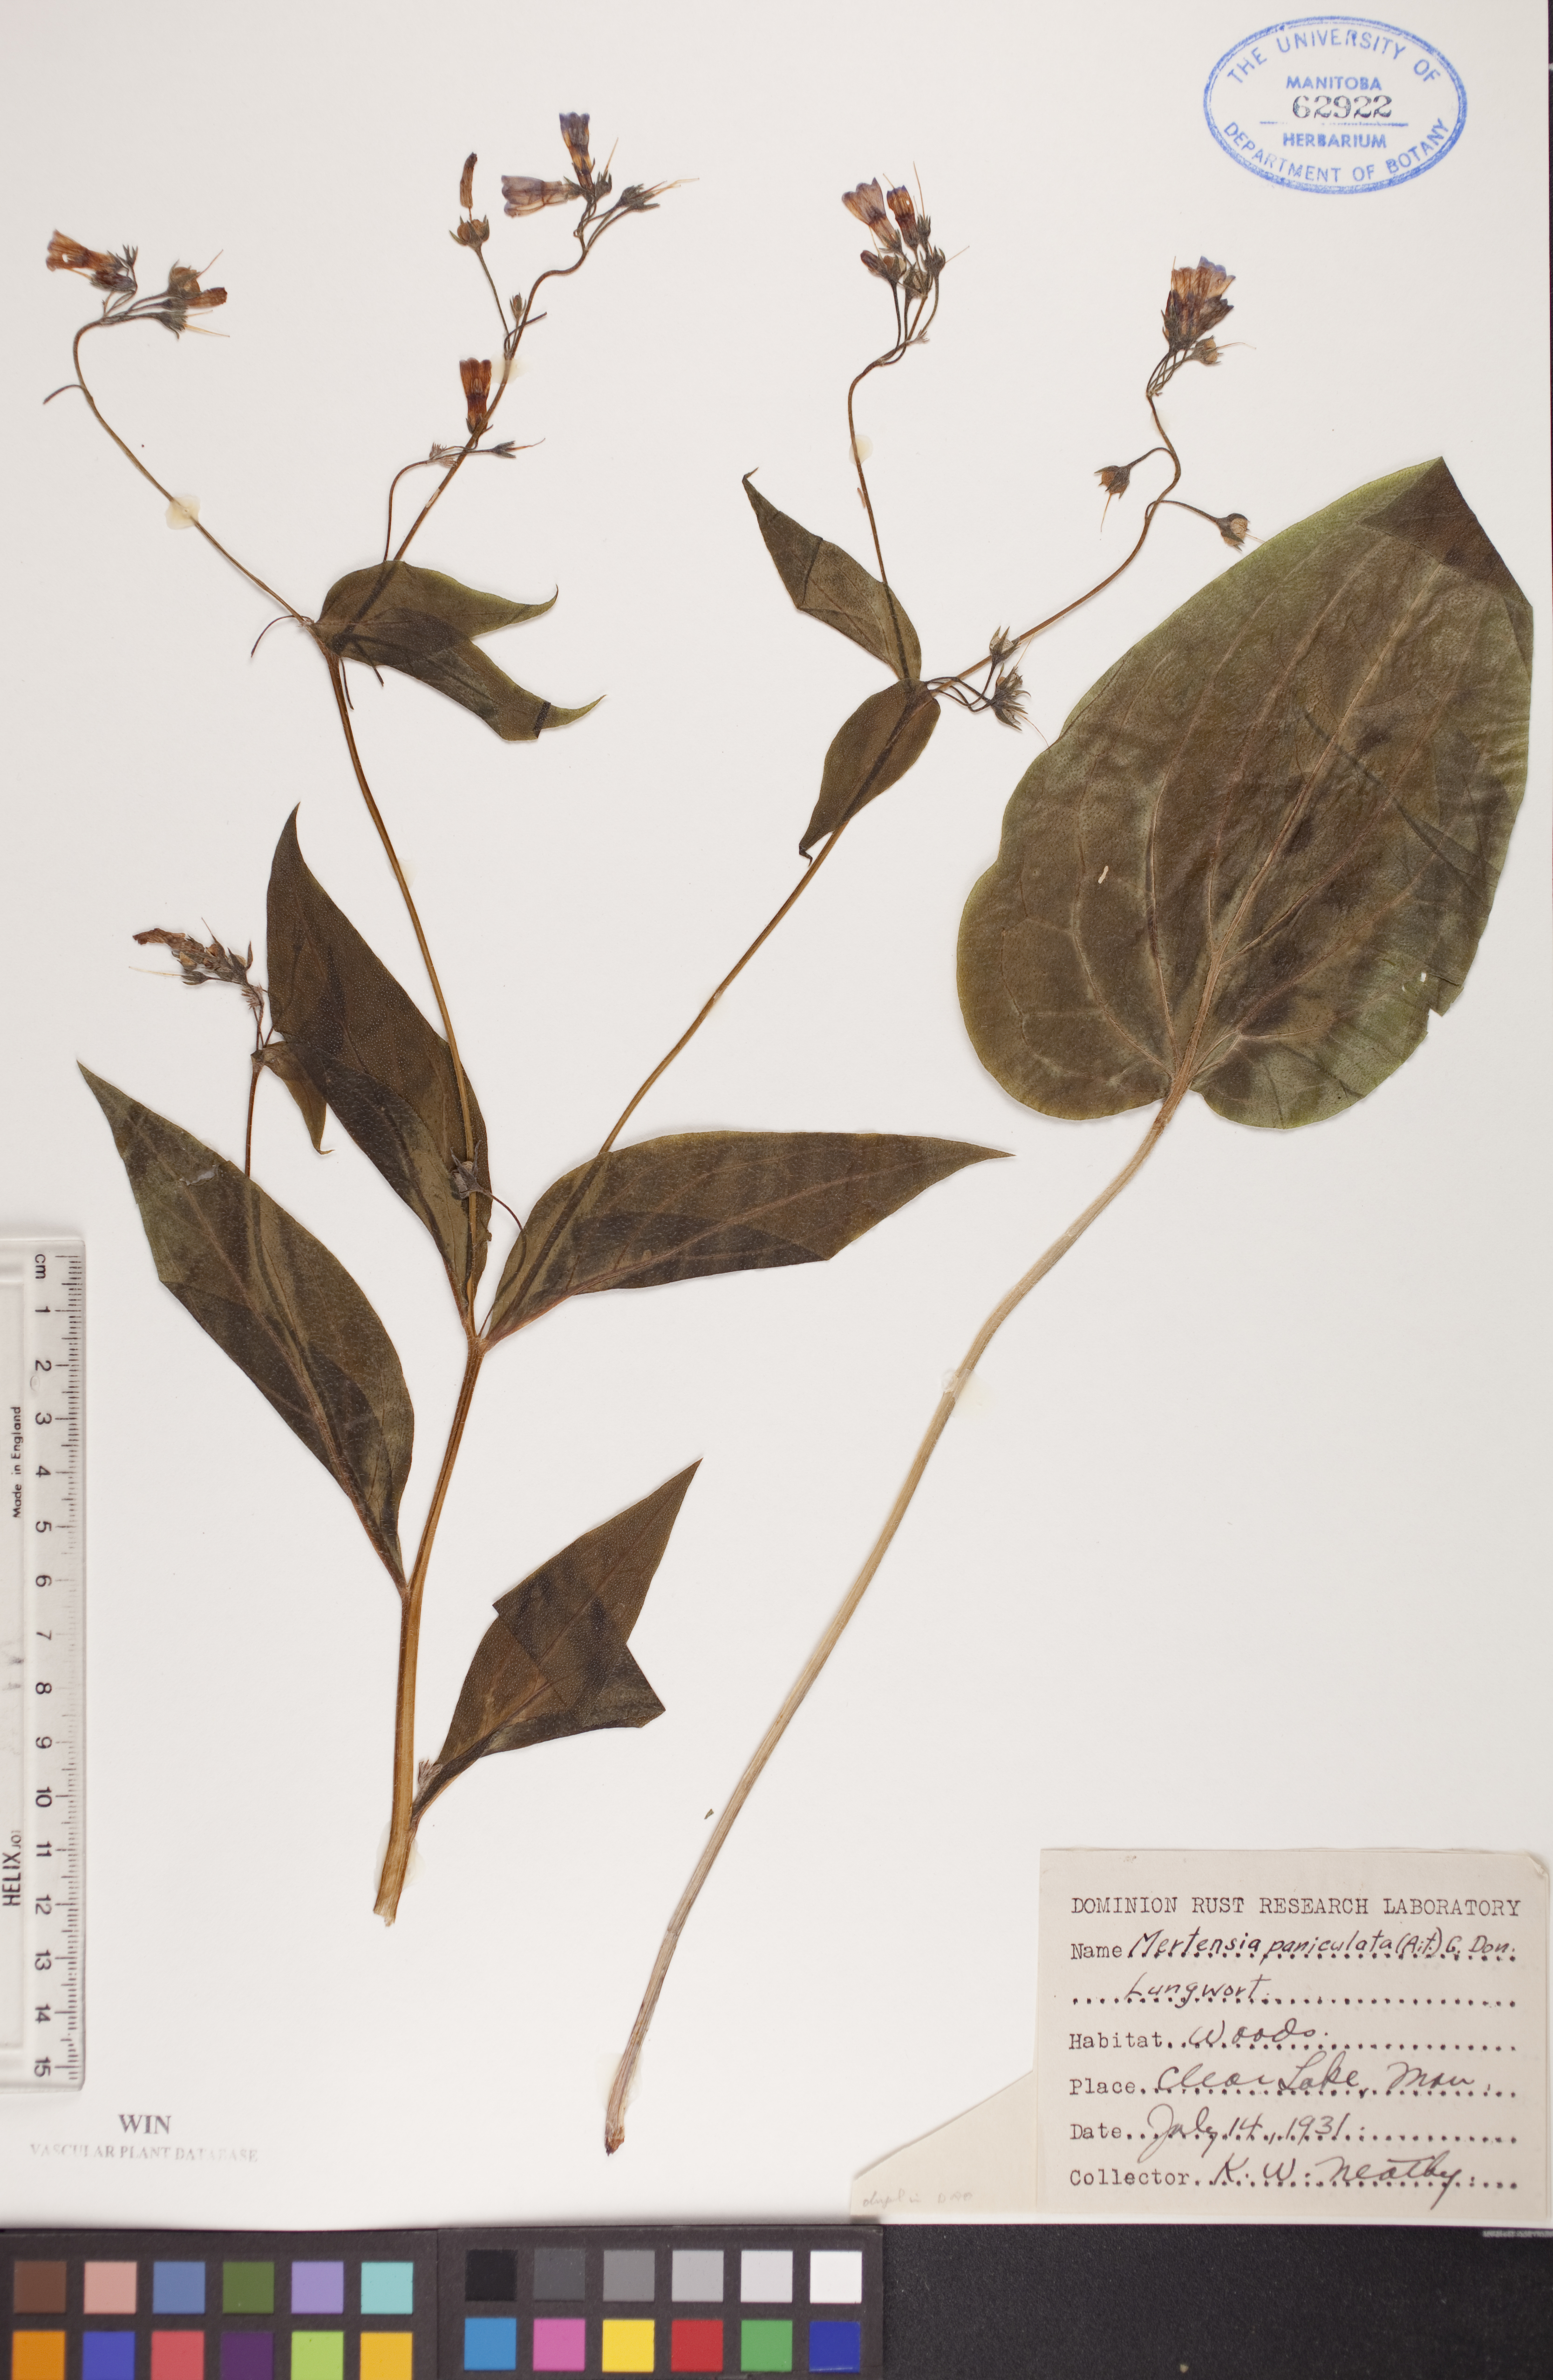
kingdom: Plantae
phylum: Tracheophyta
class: Magnoliopsida
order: Boraginales
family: Boraginaceae
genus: Mertensia
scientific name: Mertensia paniculata
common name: Panicled bluebells
